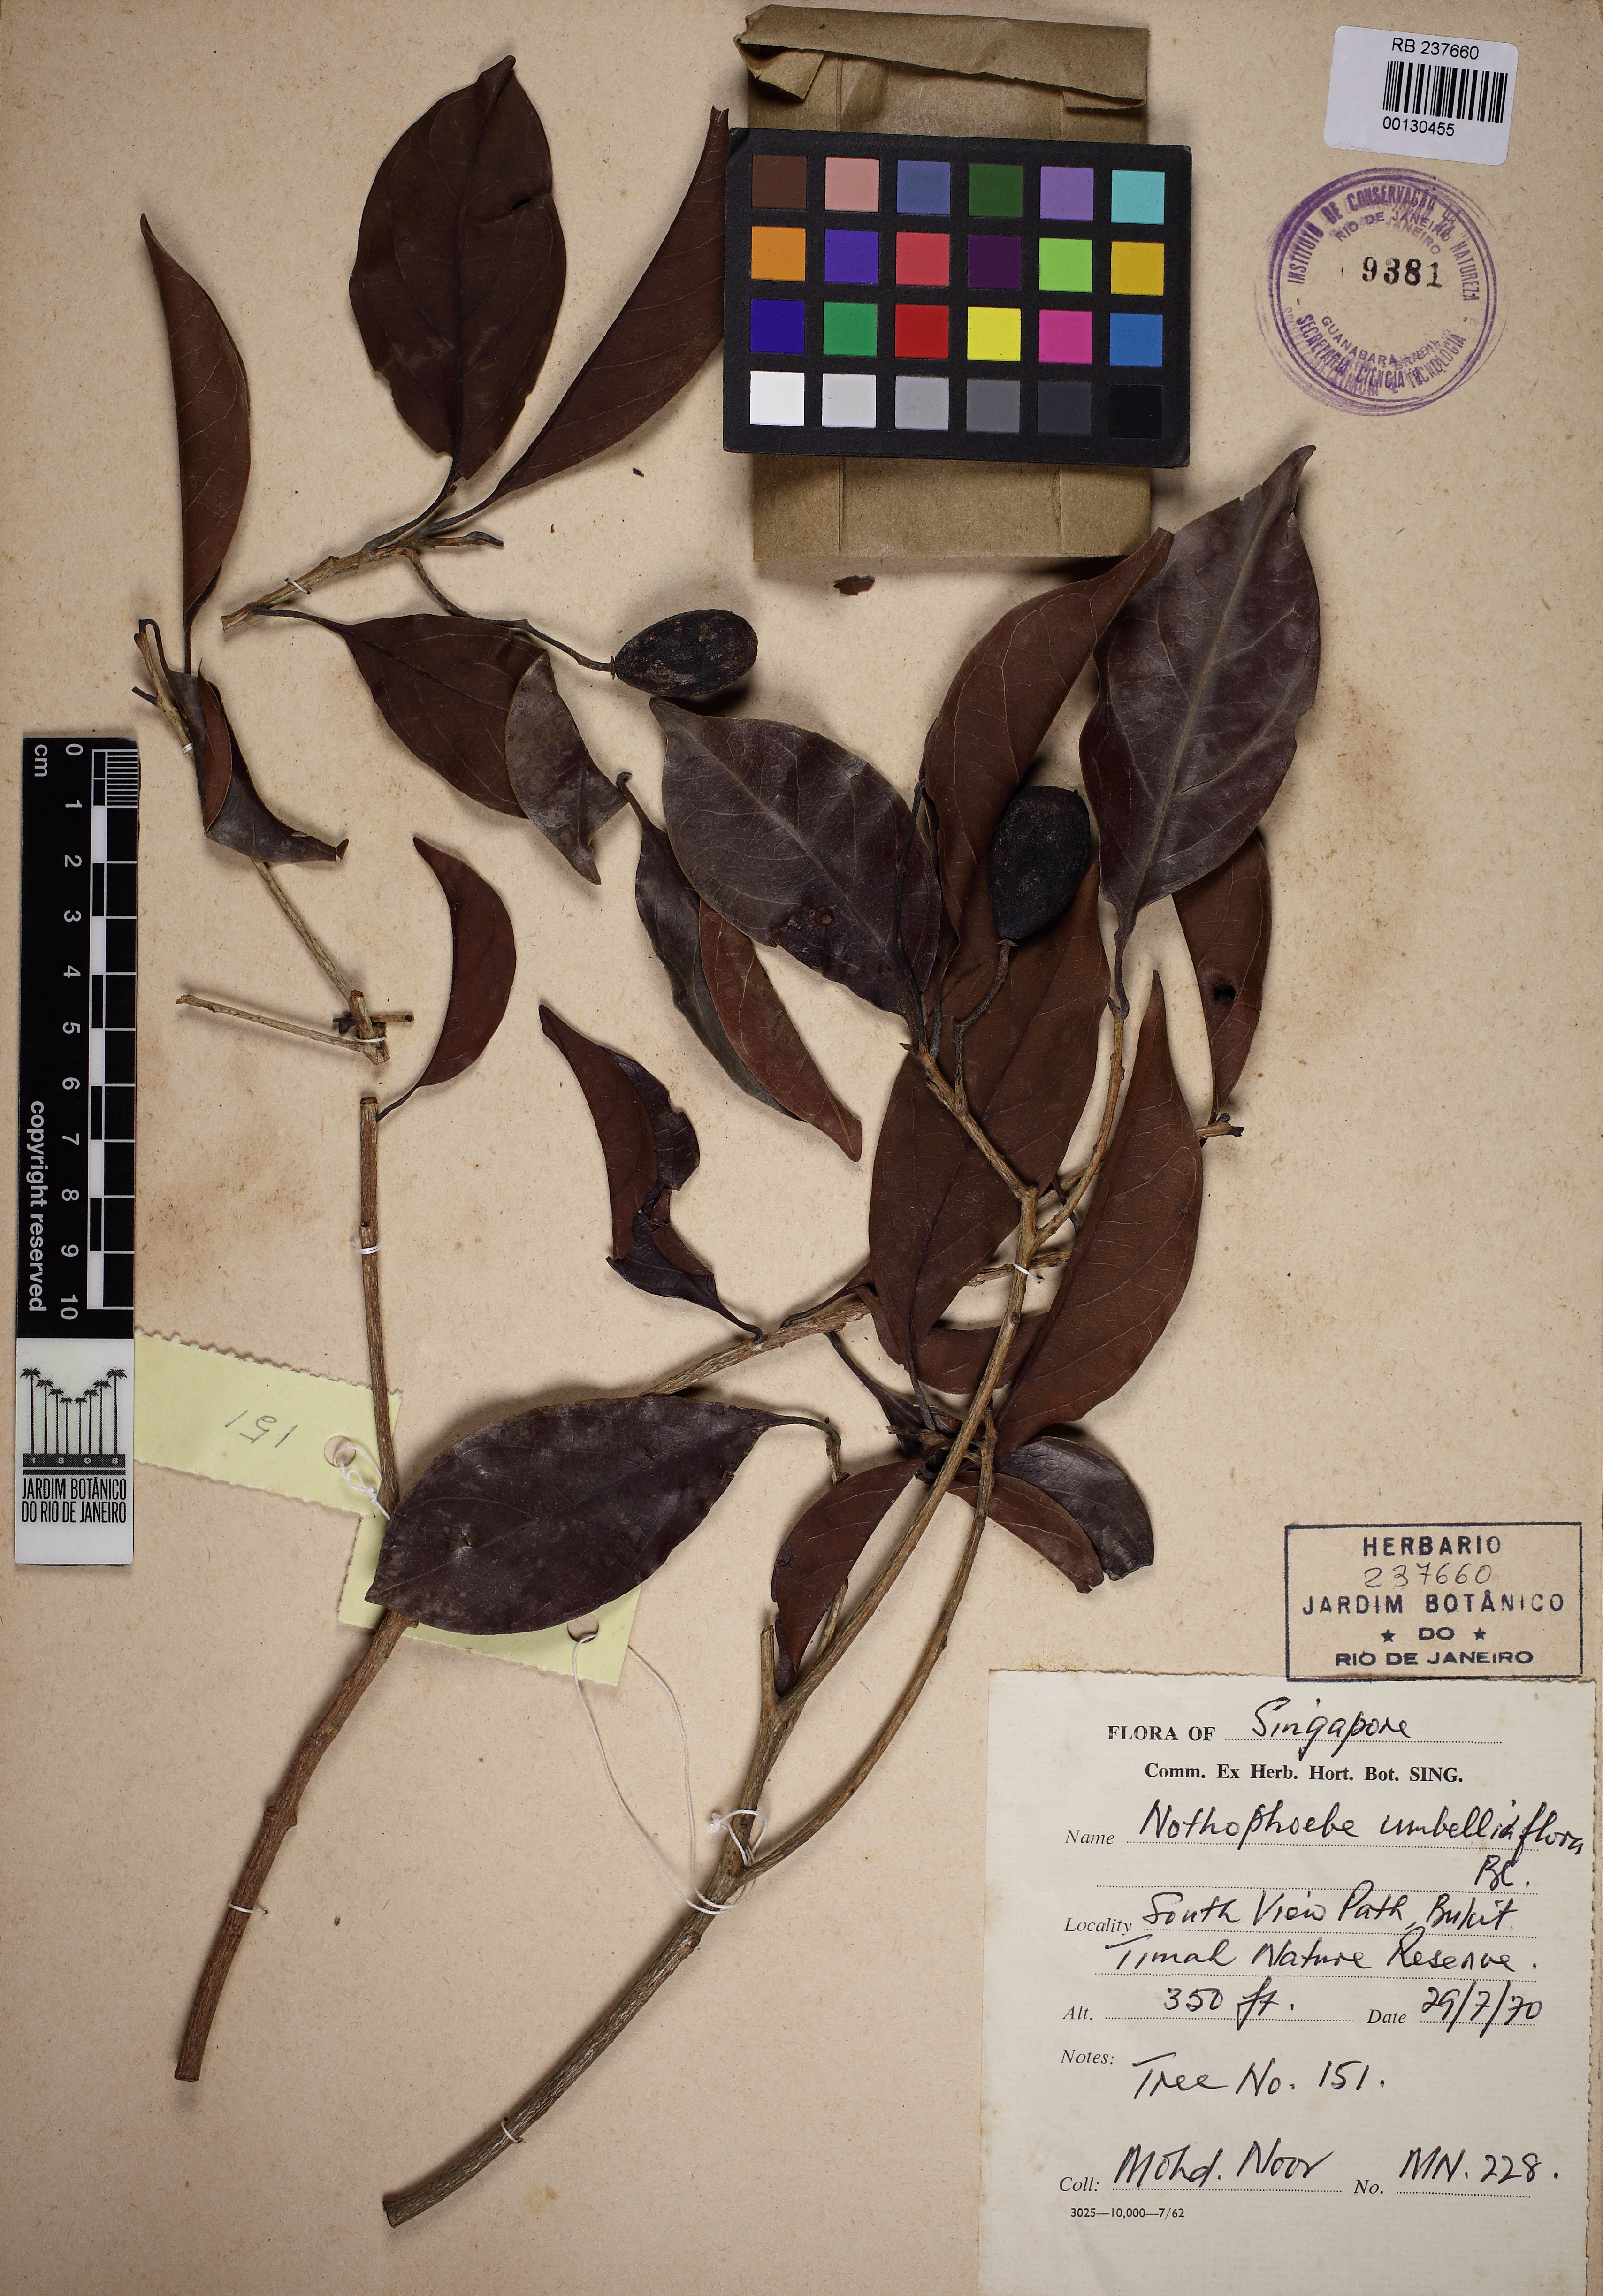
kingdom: Plantae
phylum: Tracheophyta
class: Magnoliopsida
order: Laurales
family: Lauraceae
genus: Notaphoebe
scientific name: Notaphoebe
